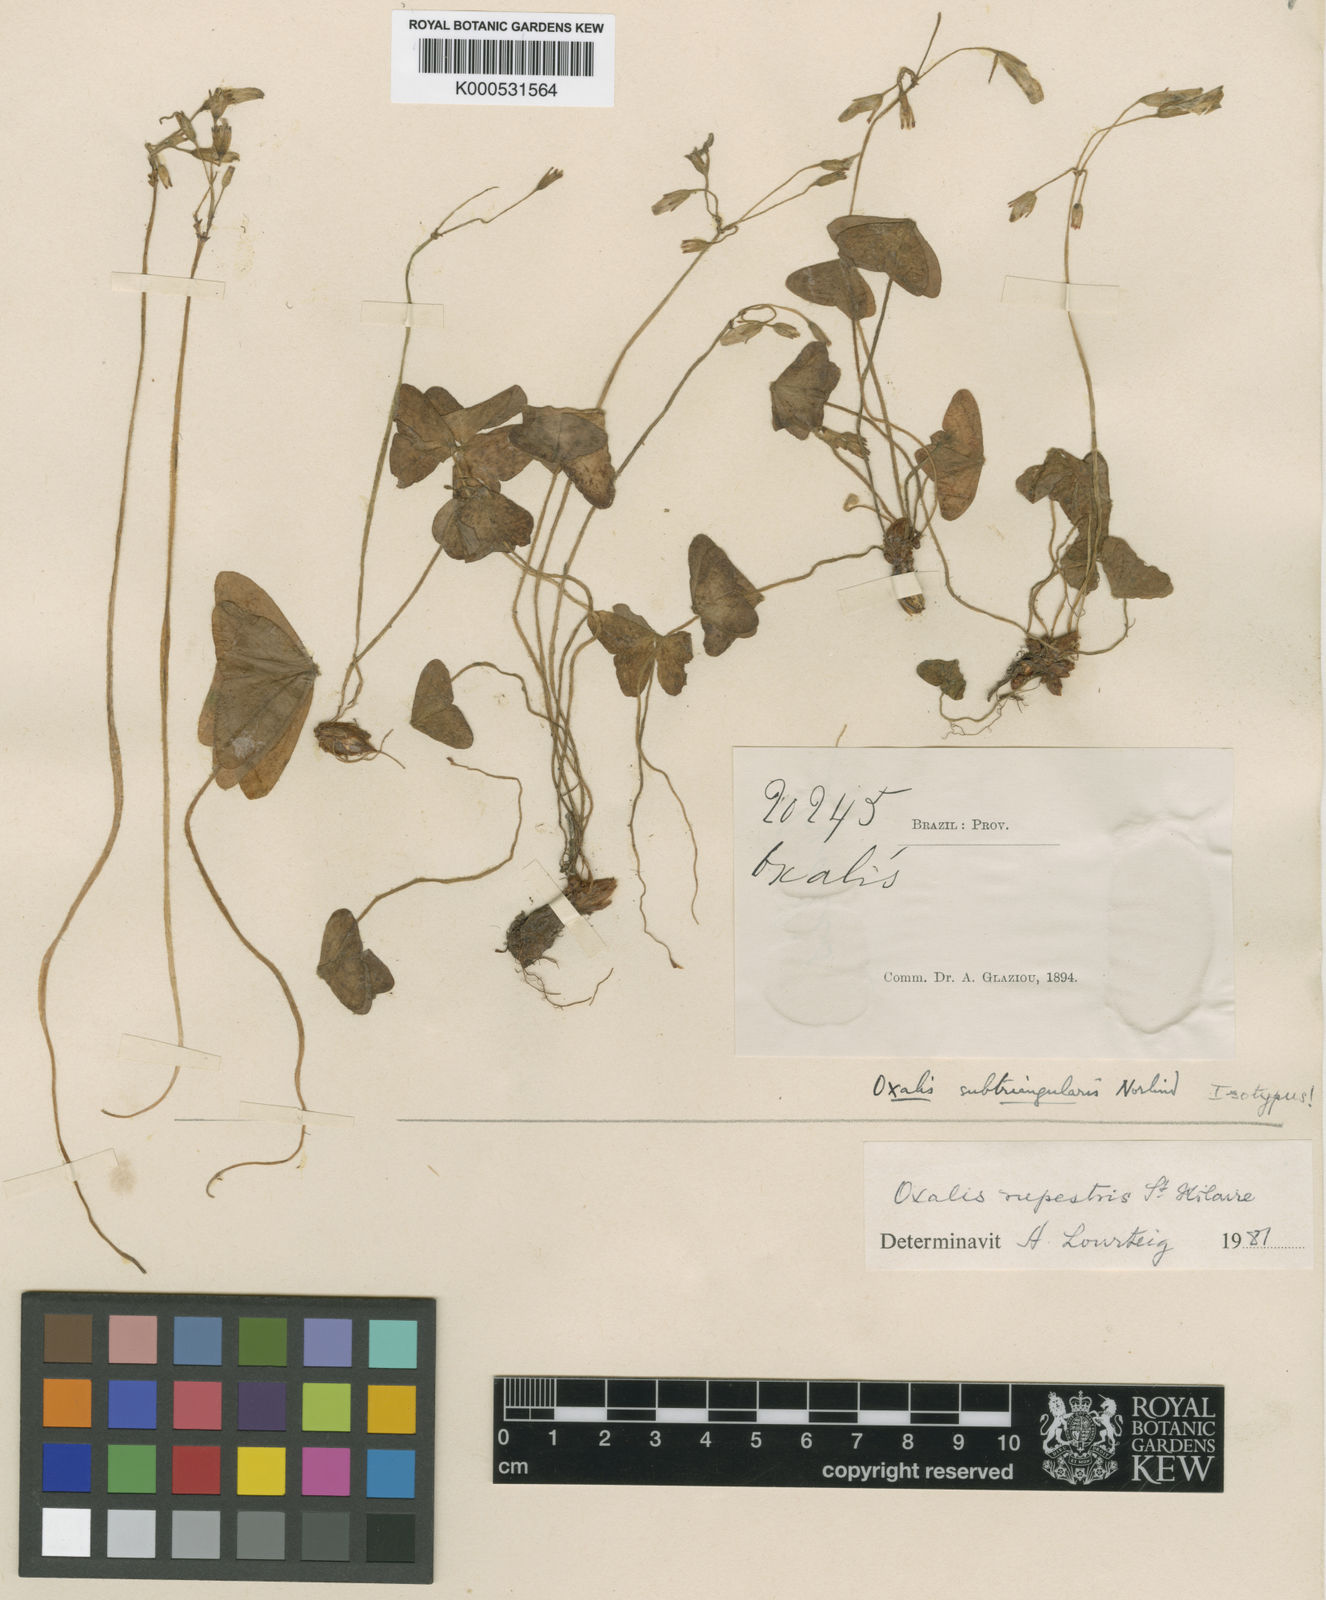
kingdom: Plantae
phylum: Tracheophyta
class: Magnoliopsida
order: Oxalidales
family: Oxalidaceae
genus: Oxalis
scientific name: Oxalis rupestris
